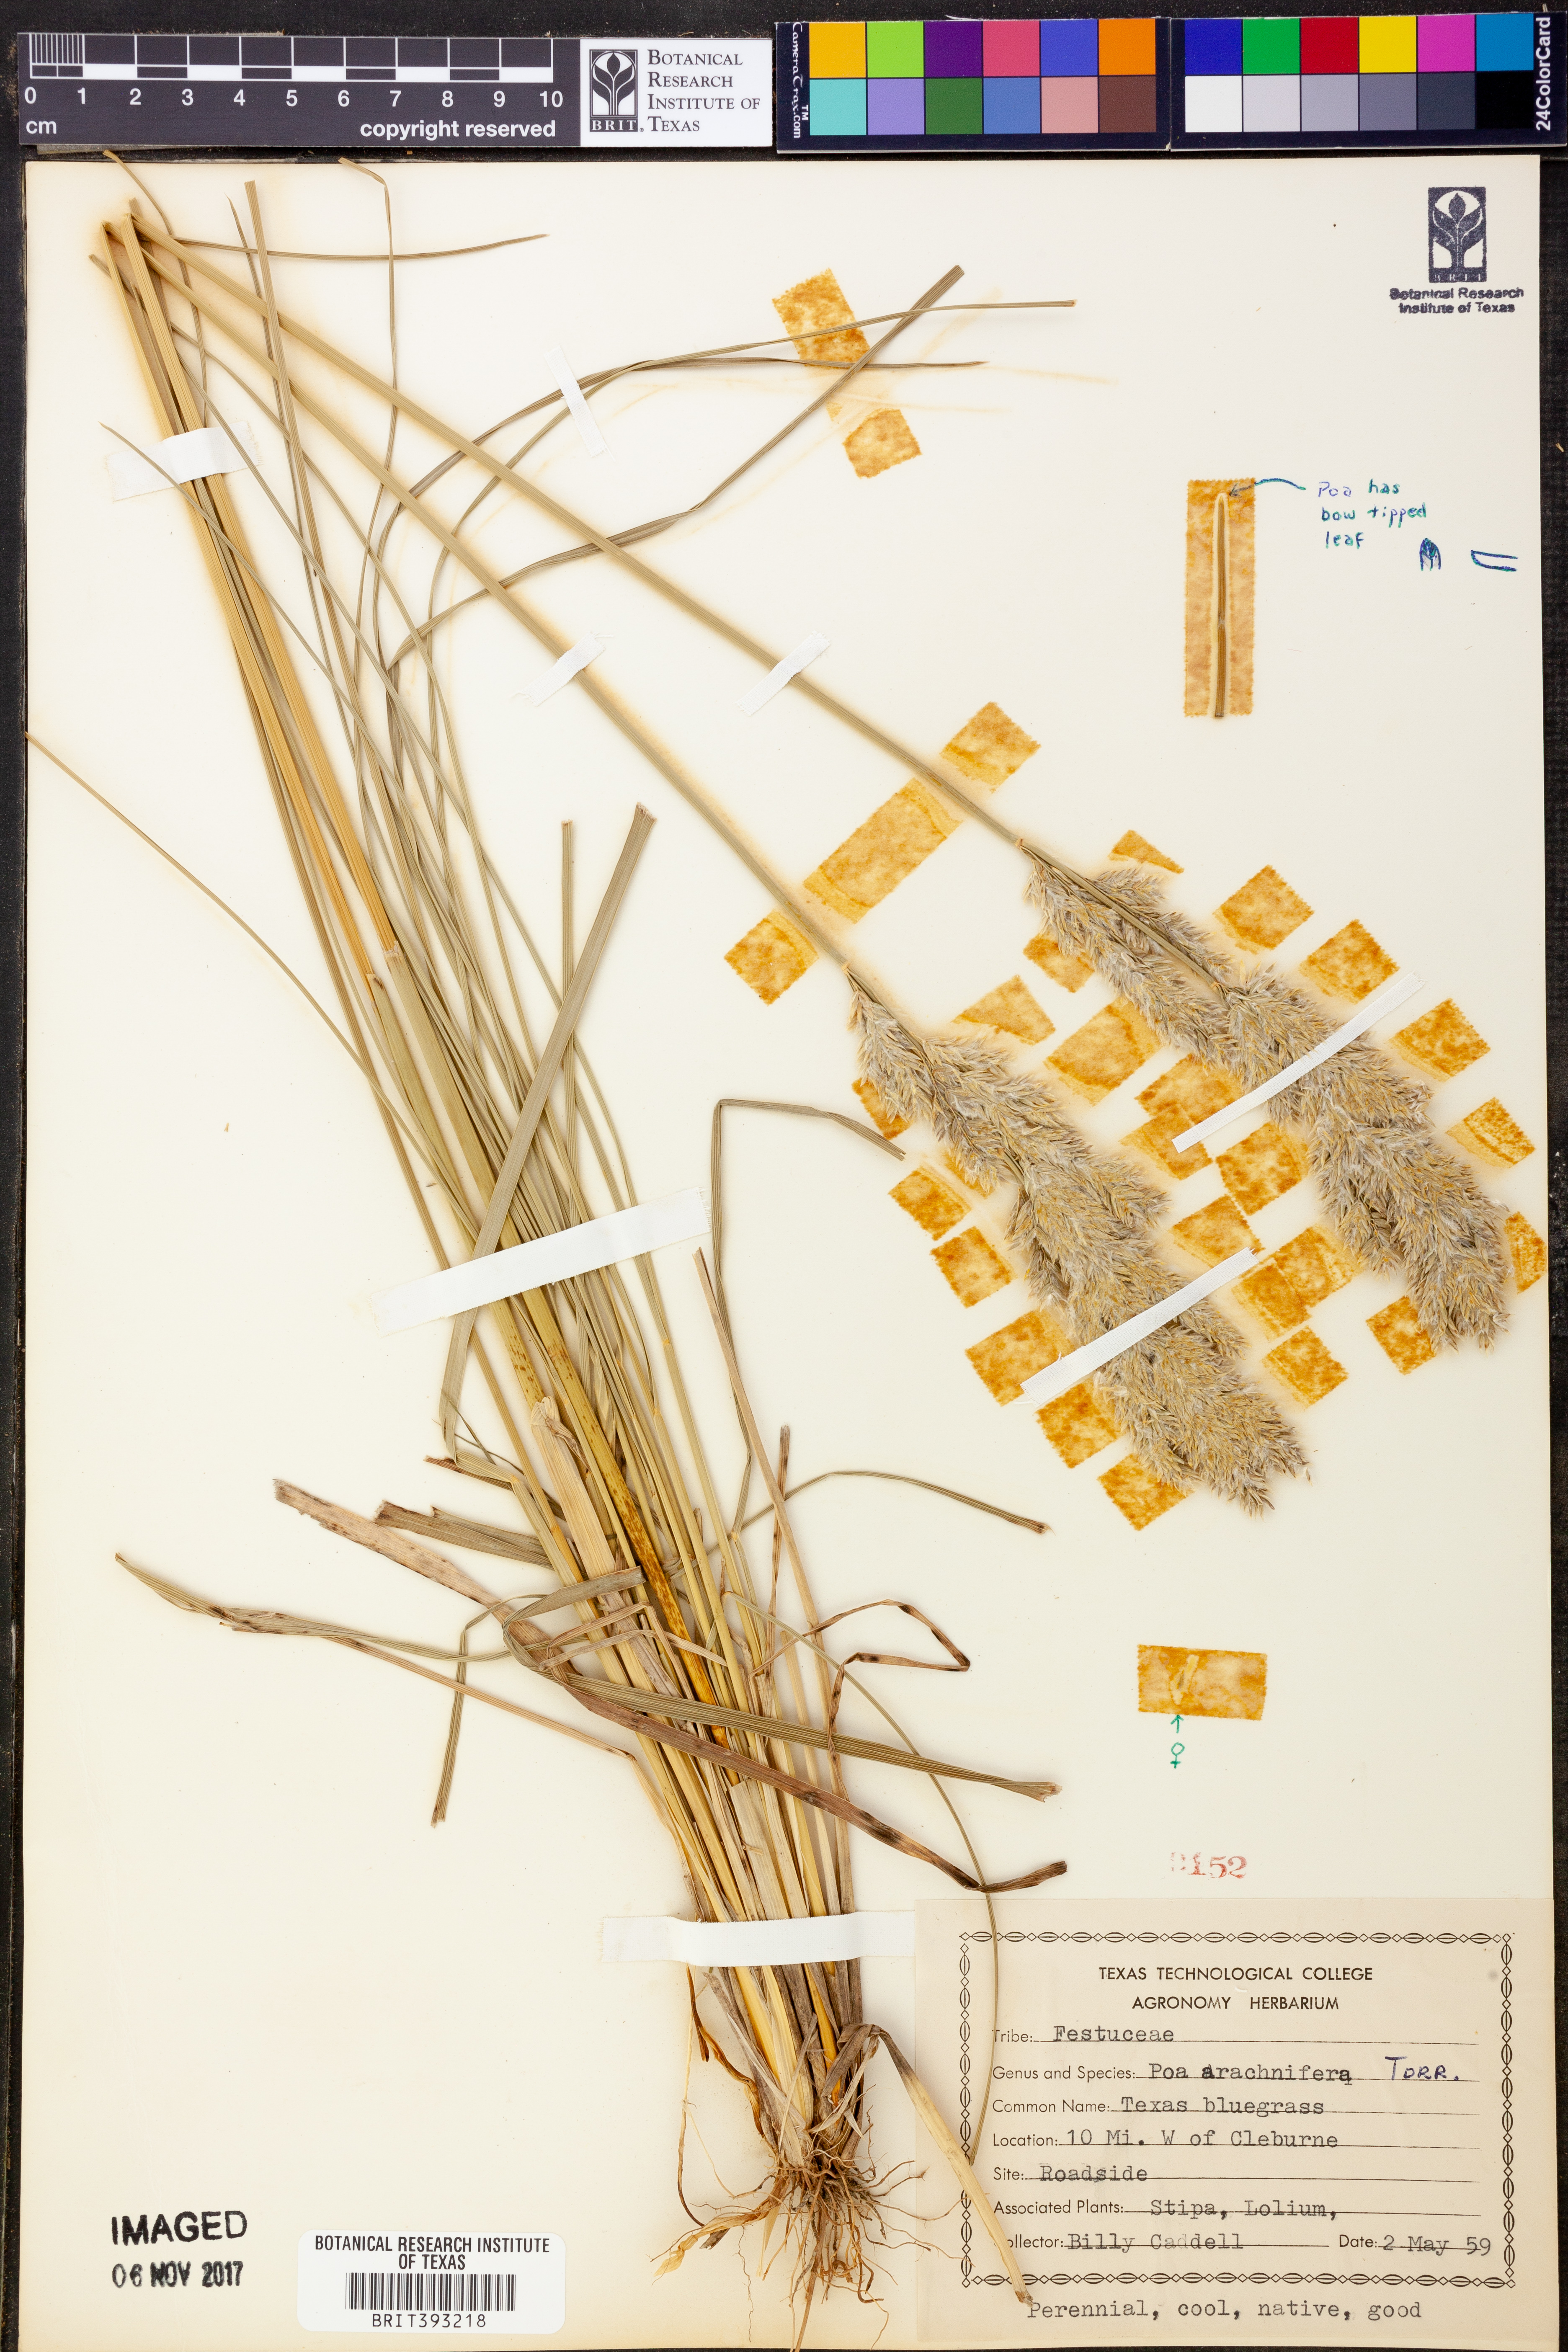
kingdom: Plantae
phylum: Tracheophyta
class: Liliopsida
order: Poales
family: Poaceae
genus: Poa
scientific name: Poa arachnifera
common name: Texas bluegrass
